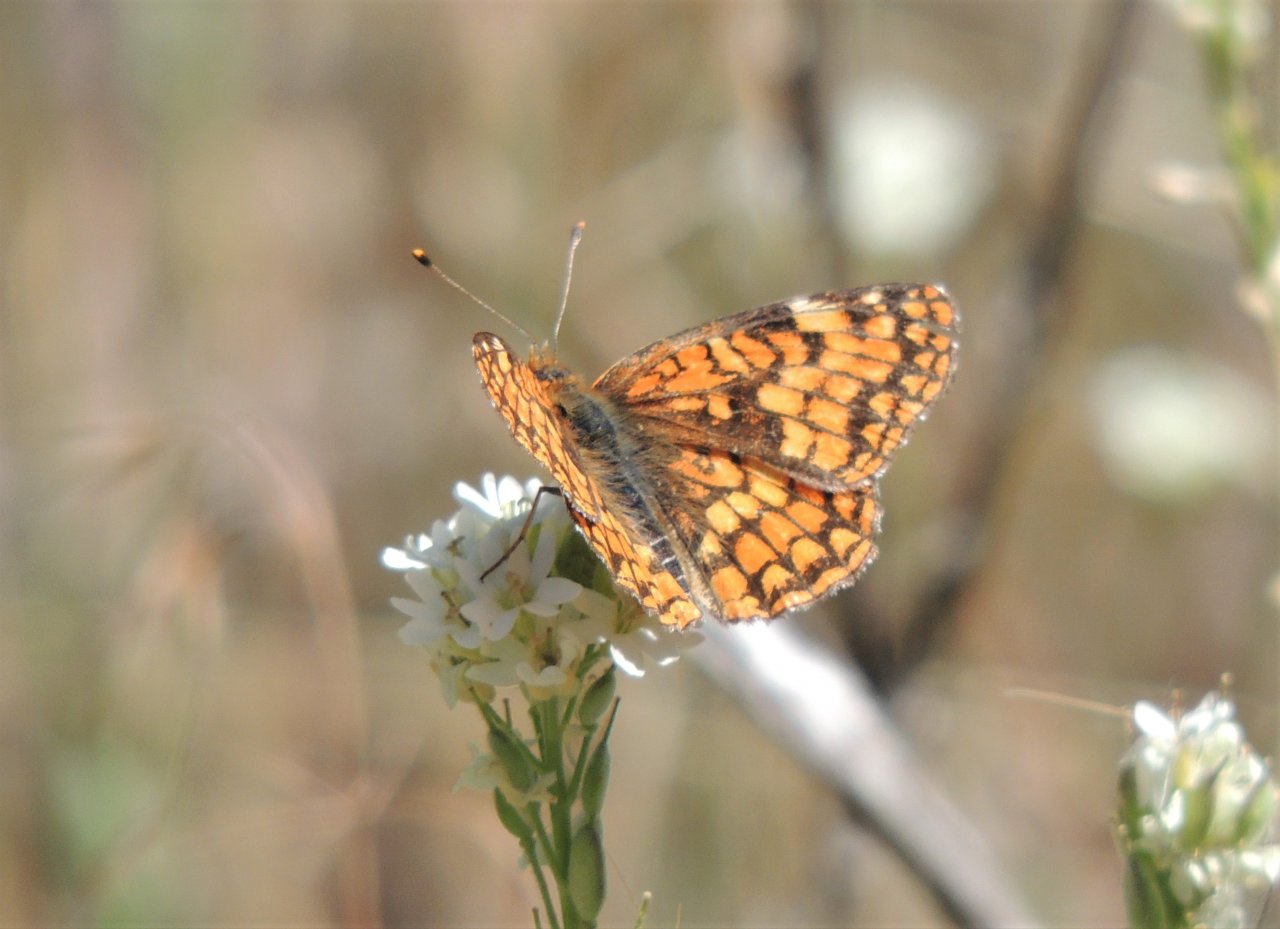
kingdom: Animalia
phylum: Arthropoda
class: Insecta
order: Lepidoptera
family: Nymphalidae
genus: Chlosyne
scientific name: Chlosyne palla
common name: Northern Checkerspot
